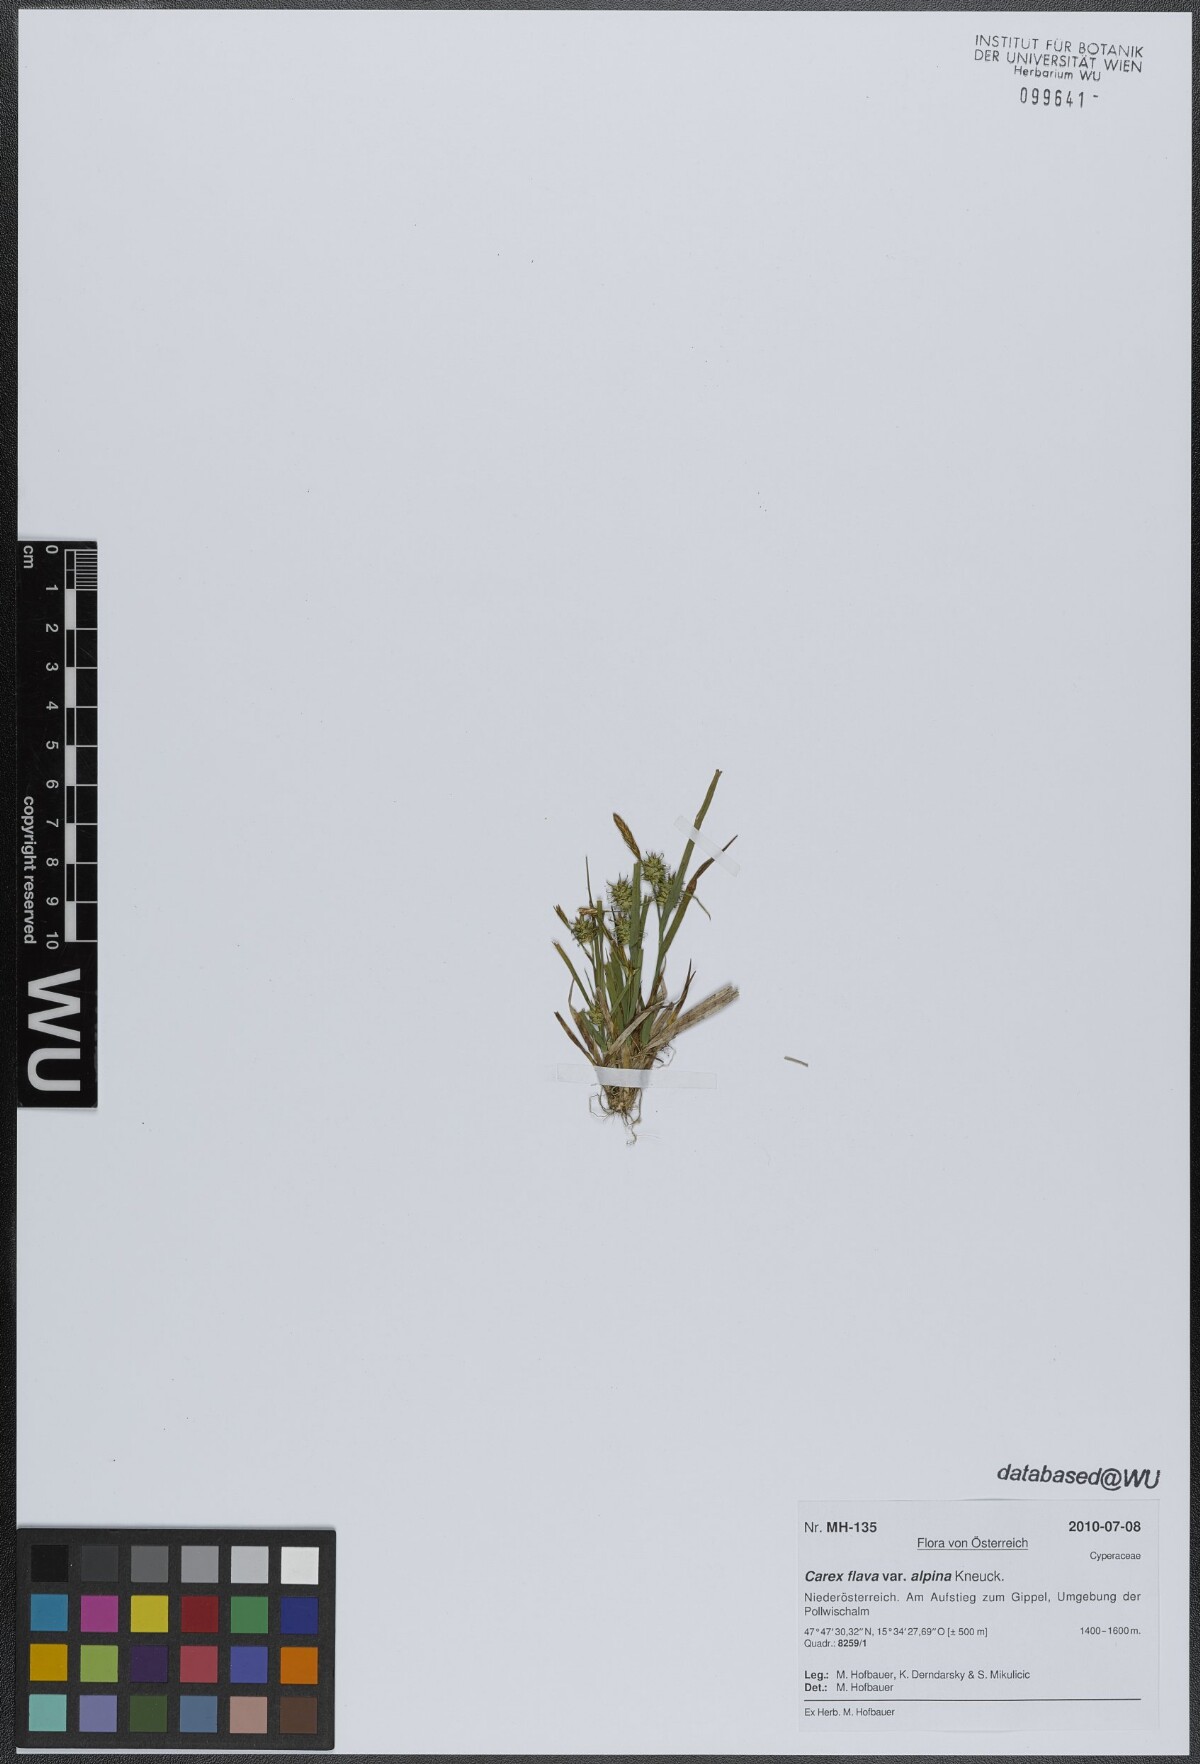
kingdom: Plantae
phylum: Tracheophyta
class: Liliopsida
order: Poales
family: Cyperaceae
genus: Carex
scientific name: Carex flava
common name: Large yellow-sedge
